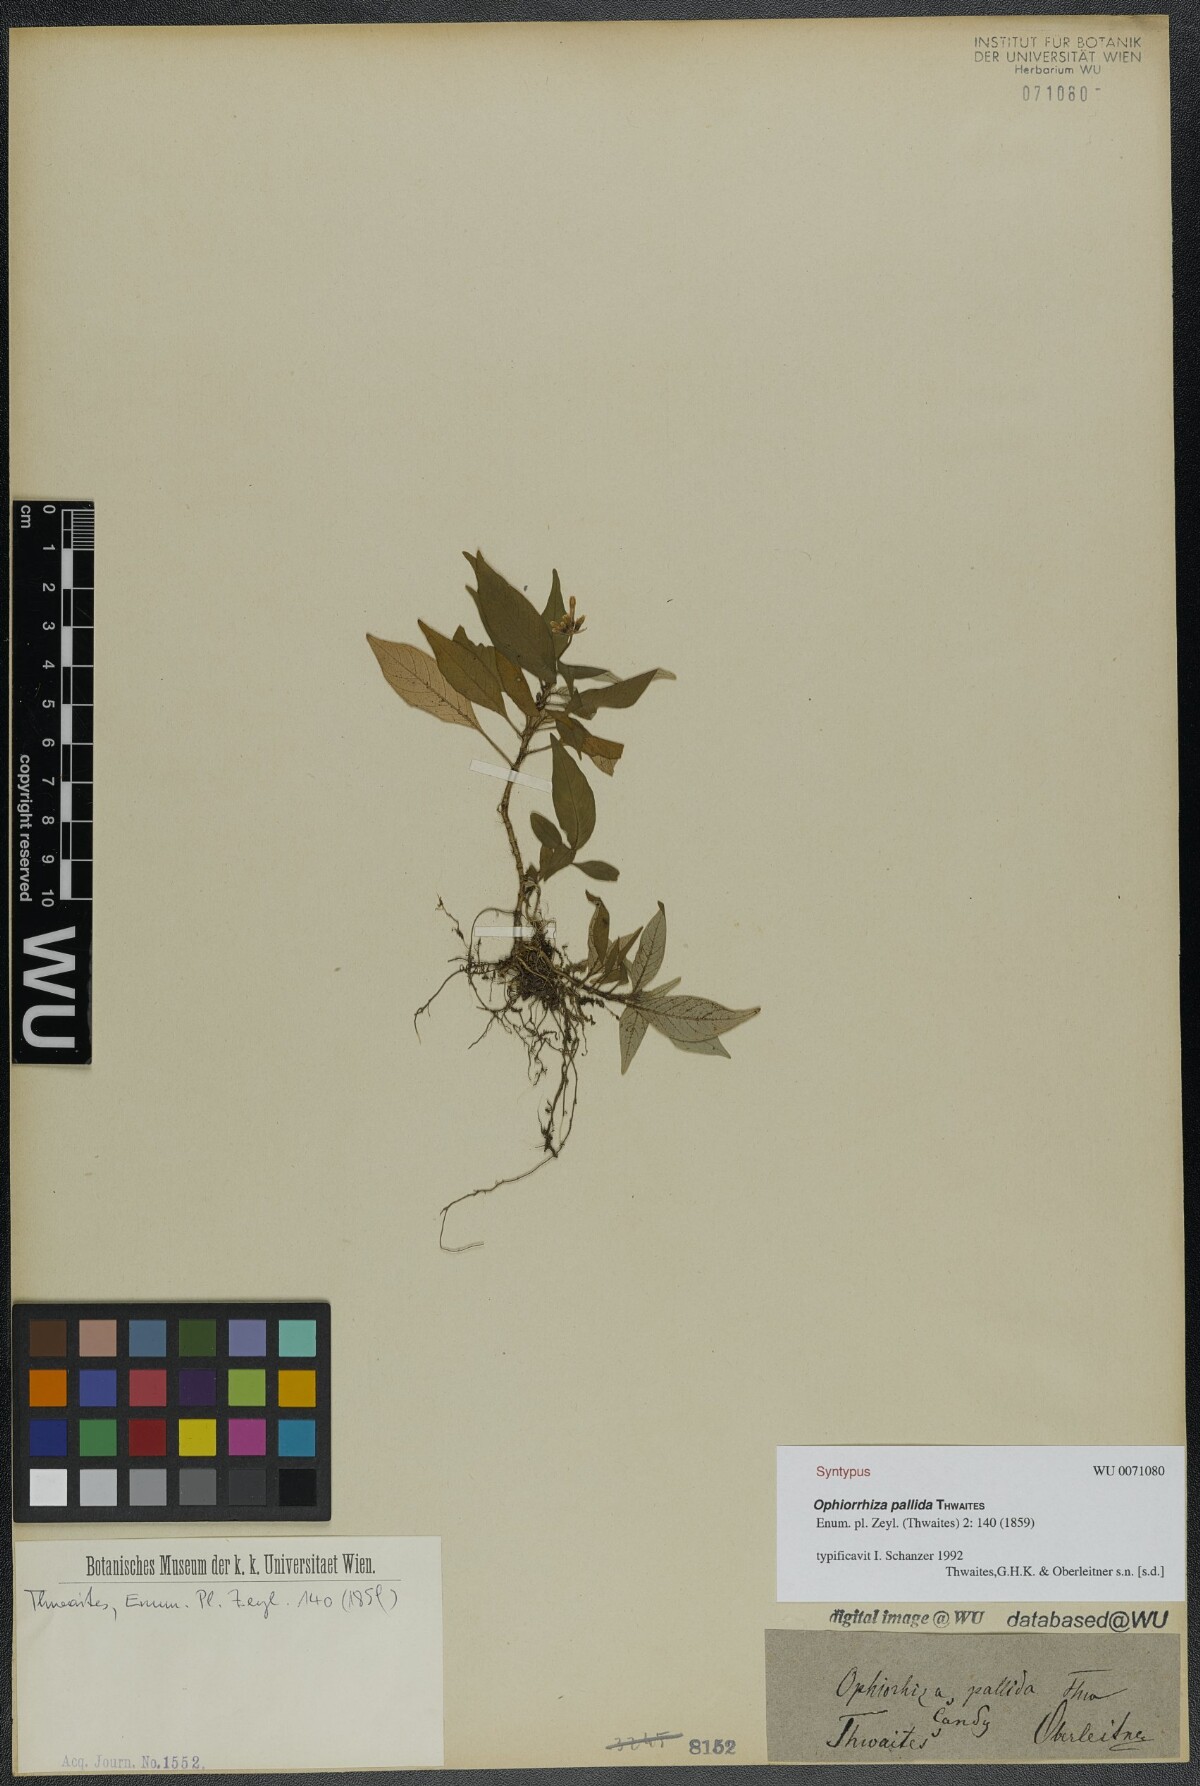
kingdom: Plantae
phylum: Tracheophyta
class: Magnoliopsida
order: Gentianales
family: Rubiaceae
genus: Ophiorrhiza
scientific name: Ophiorrhiza pallida
